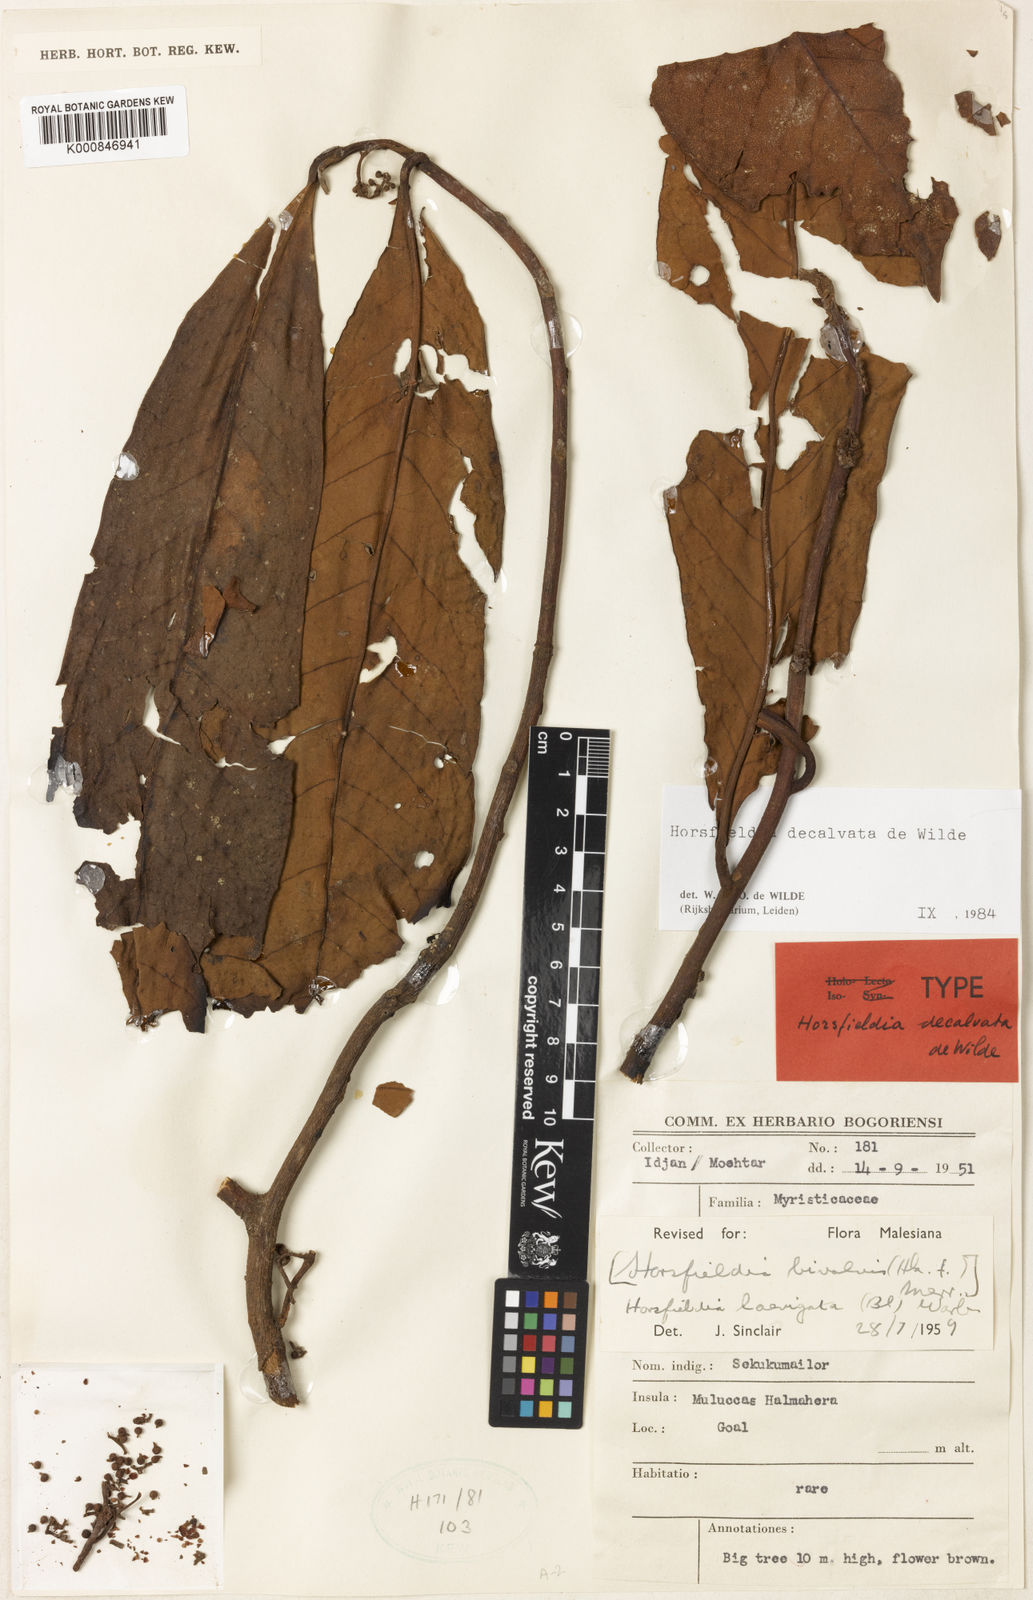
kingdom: Plantae
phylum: Tracheophyta
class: Magnoliopsida
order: Magnoliales
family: Myristicaceae
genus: Horsfieldia
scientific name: Horsfieldia
